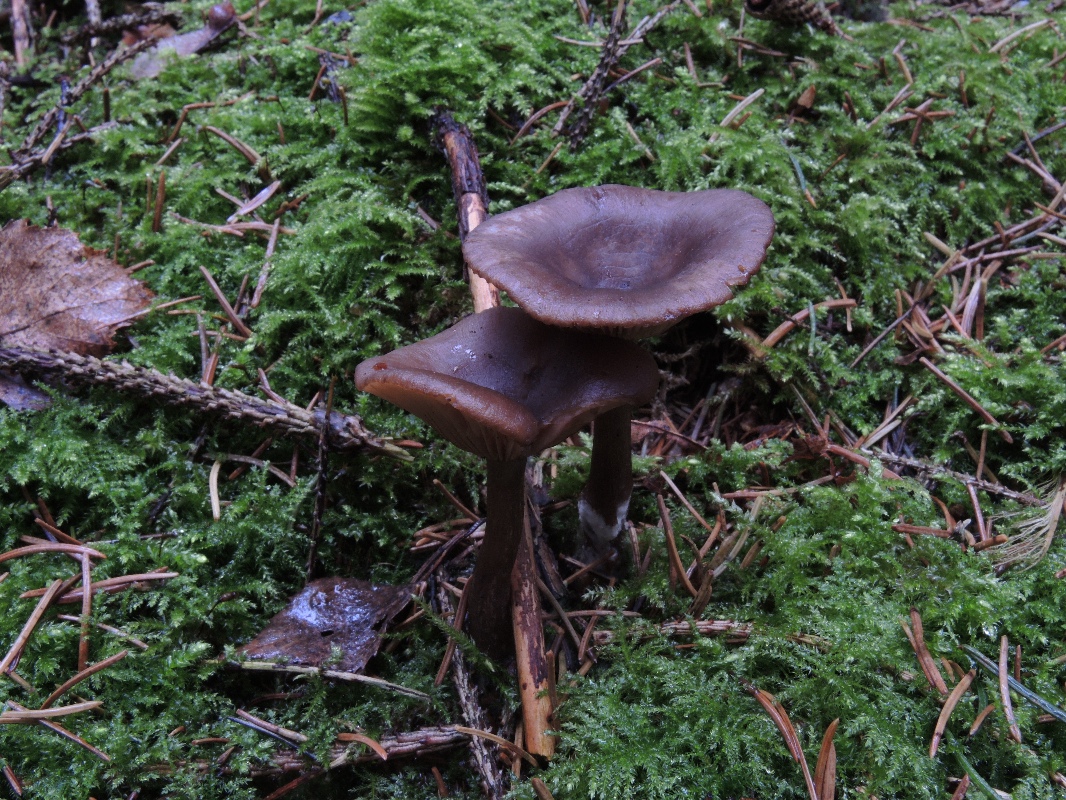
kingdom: Fungi
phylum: Basidiomycota
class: Agaricomycetes
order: Agaricales
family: Pseudoclitocybaceae
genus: Pseudoclitocybe
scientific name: Pseudoclitocybe cyathiformis
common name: almindelig bægertragthat
